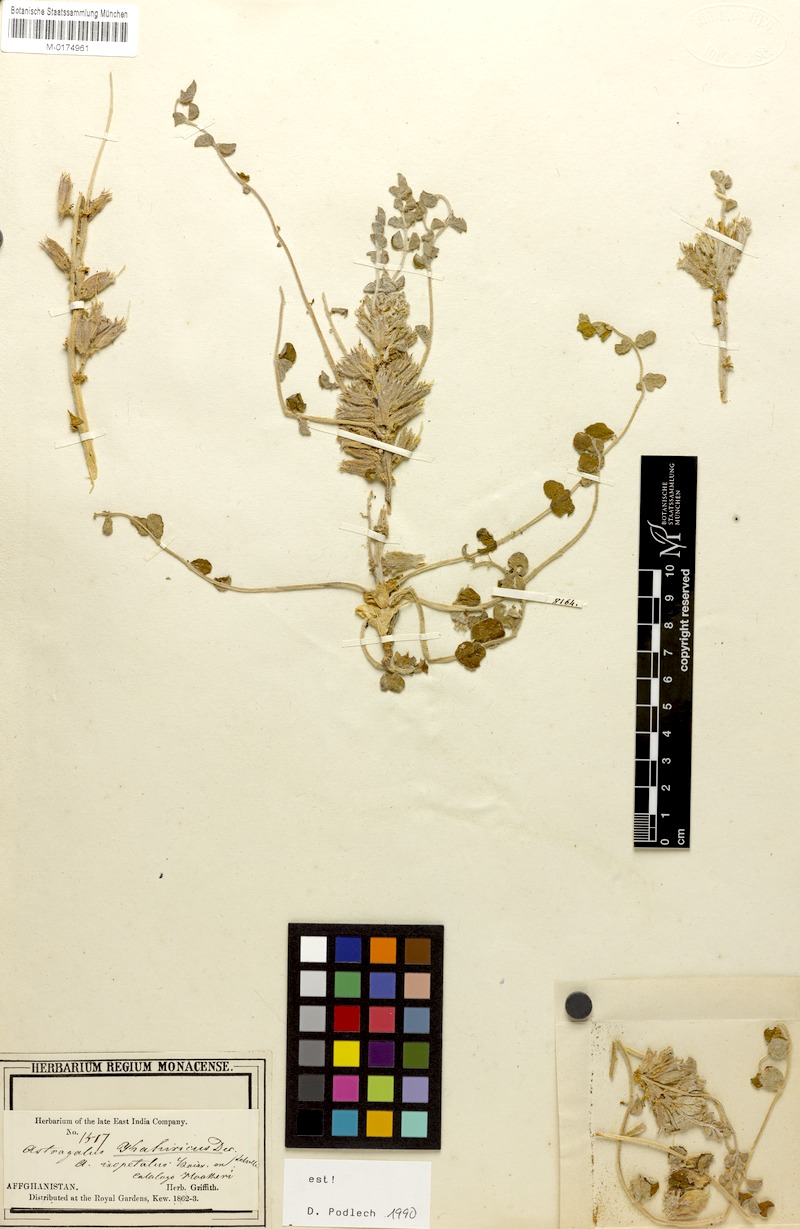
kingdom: Plantae
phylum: Tracheophyta
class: Magnoliopsida
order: Fabales
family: Fabaceae
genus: Astragalus
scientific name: Astragalus kahiricus
